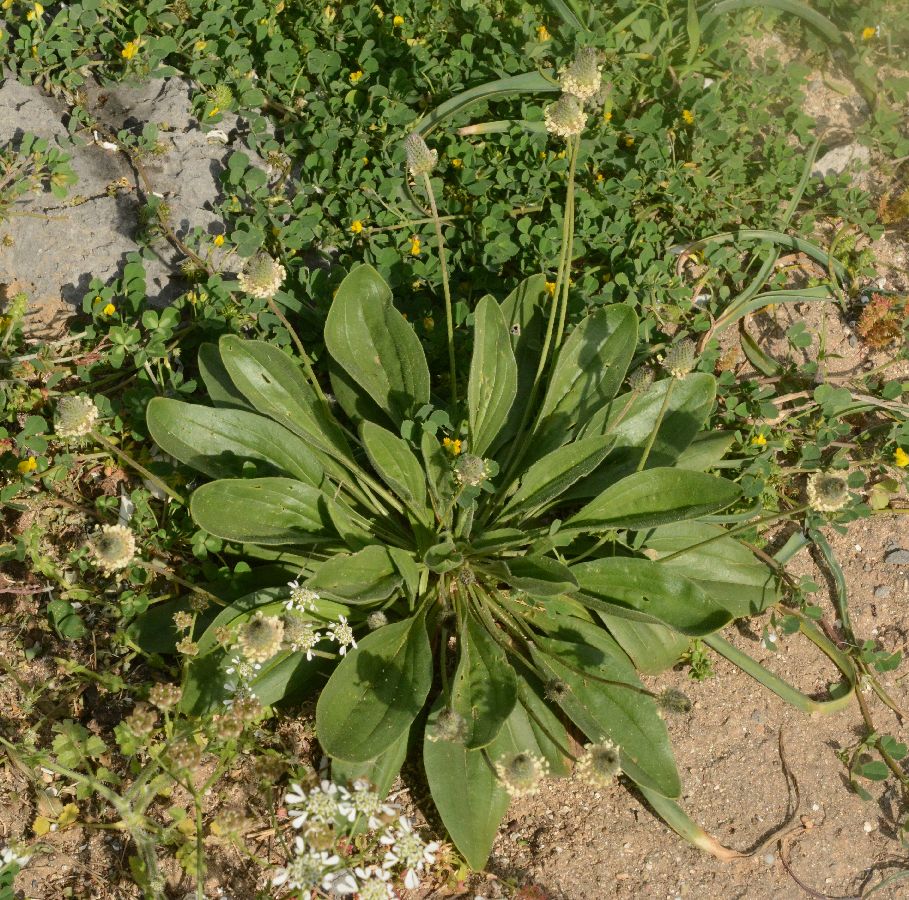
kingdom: Plantae
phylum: Tracheophyta
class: Magnoliopsida
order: Lamiales
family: Plantaginaceae
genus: Plantago
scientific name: Plantago lagopus
